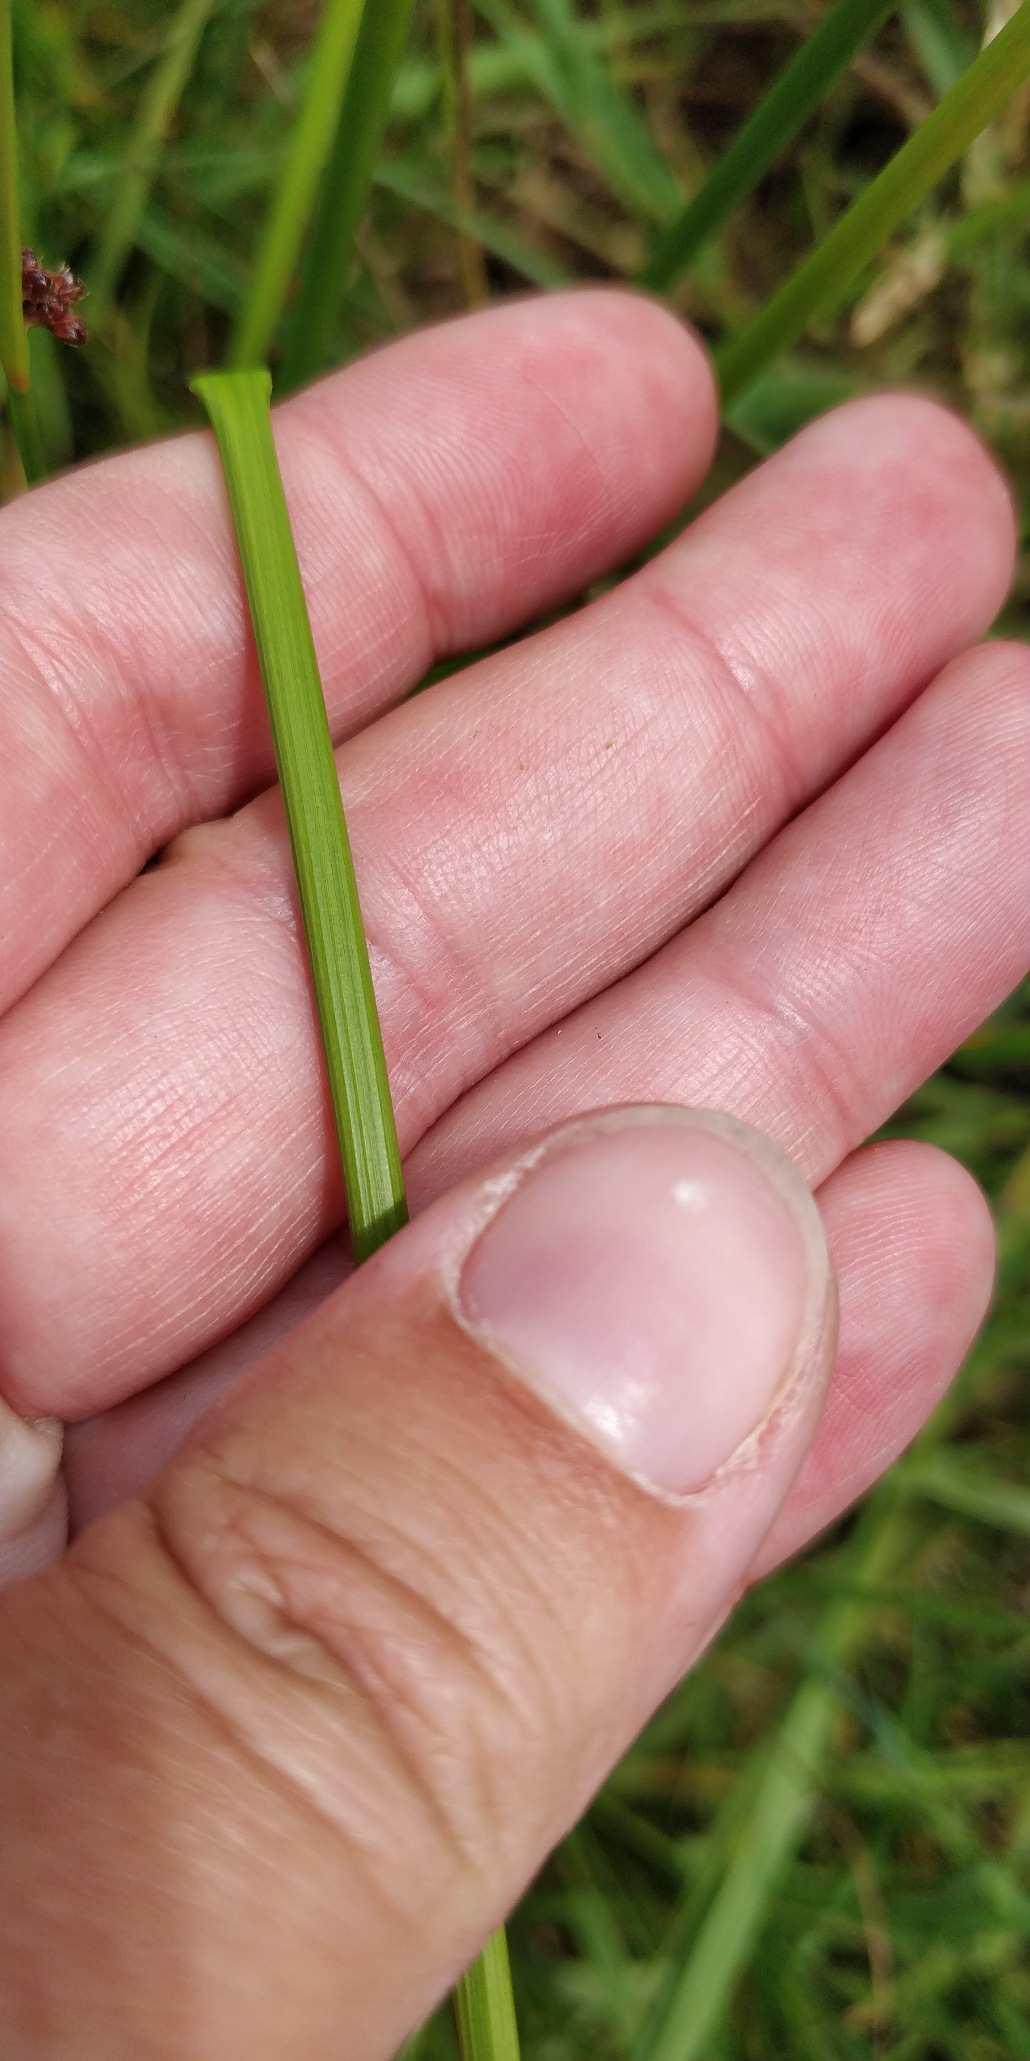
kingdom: Plantae
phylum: Tracheophyta
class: Liliopsida
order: Poales
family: Juncaceae
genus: Juncus
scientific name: Juncus conglomeratus
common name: Knop-siv
